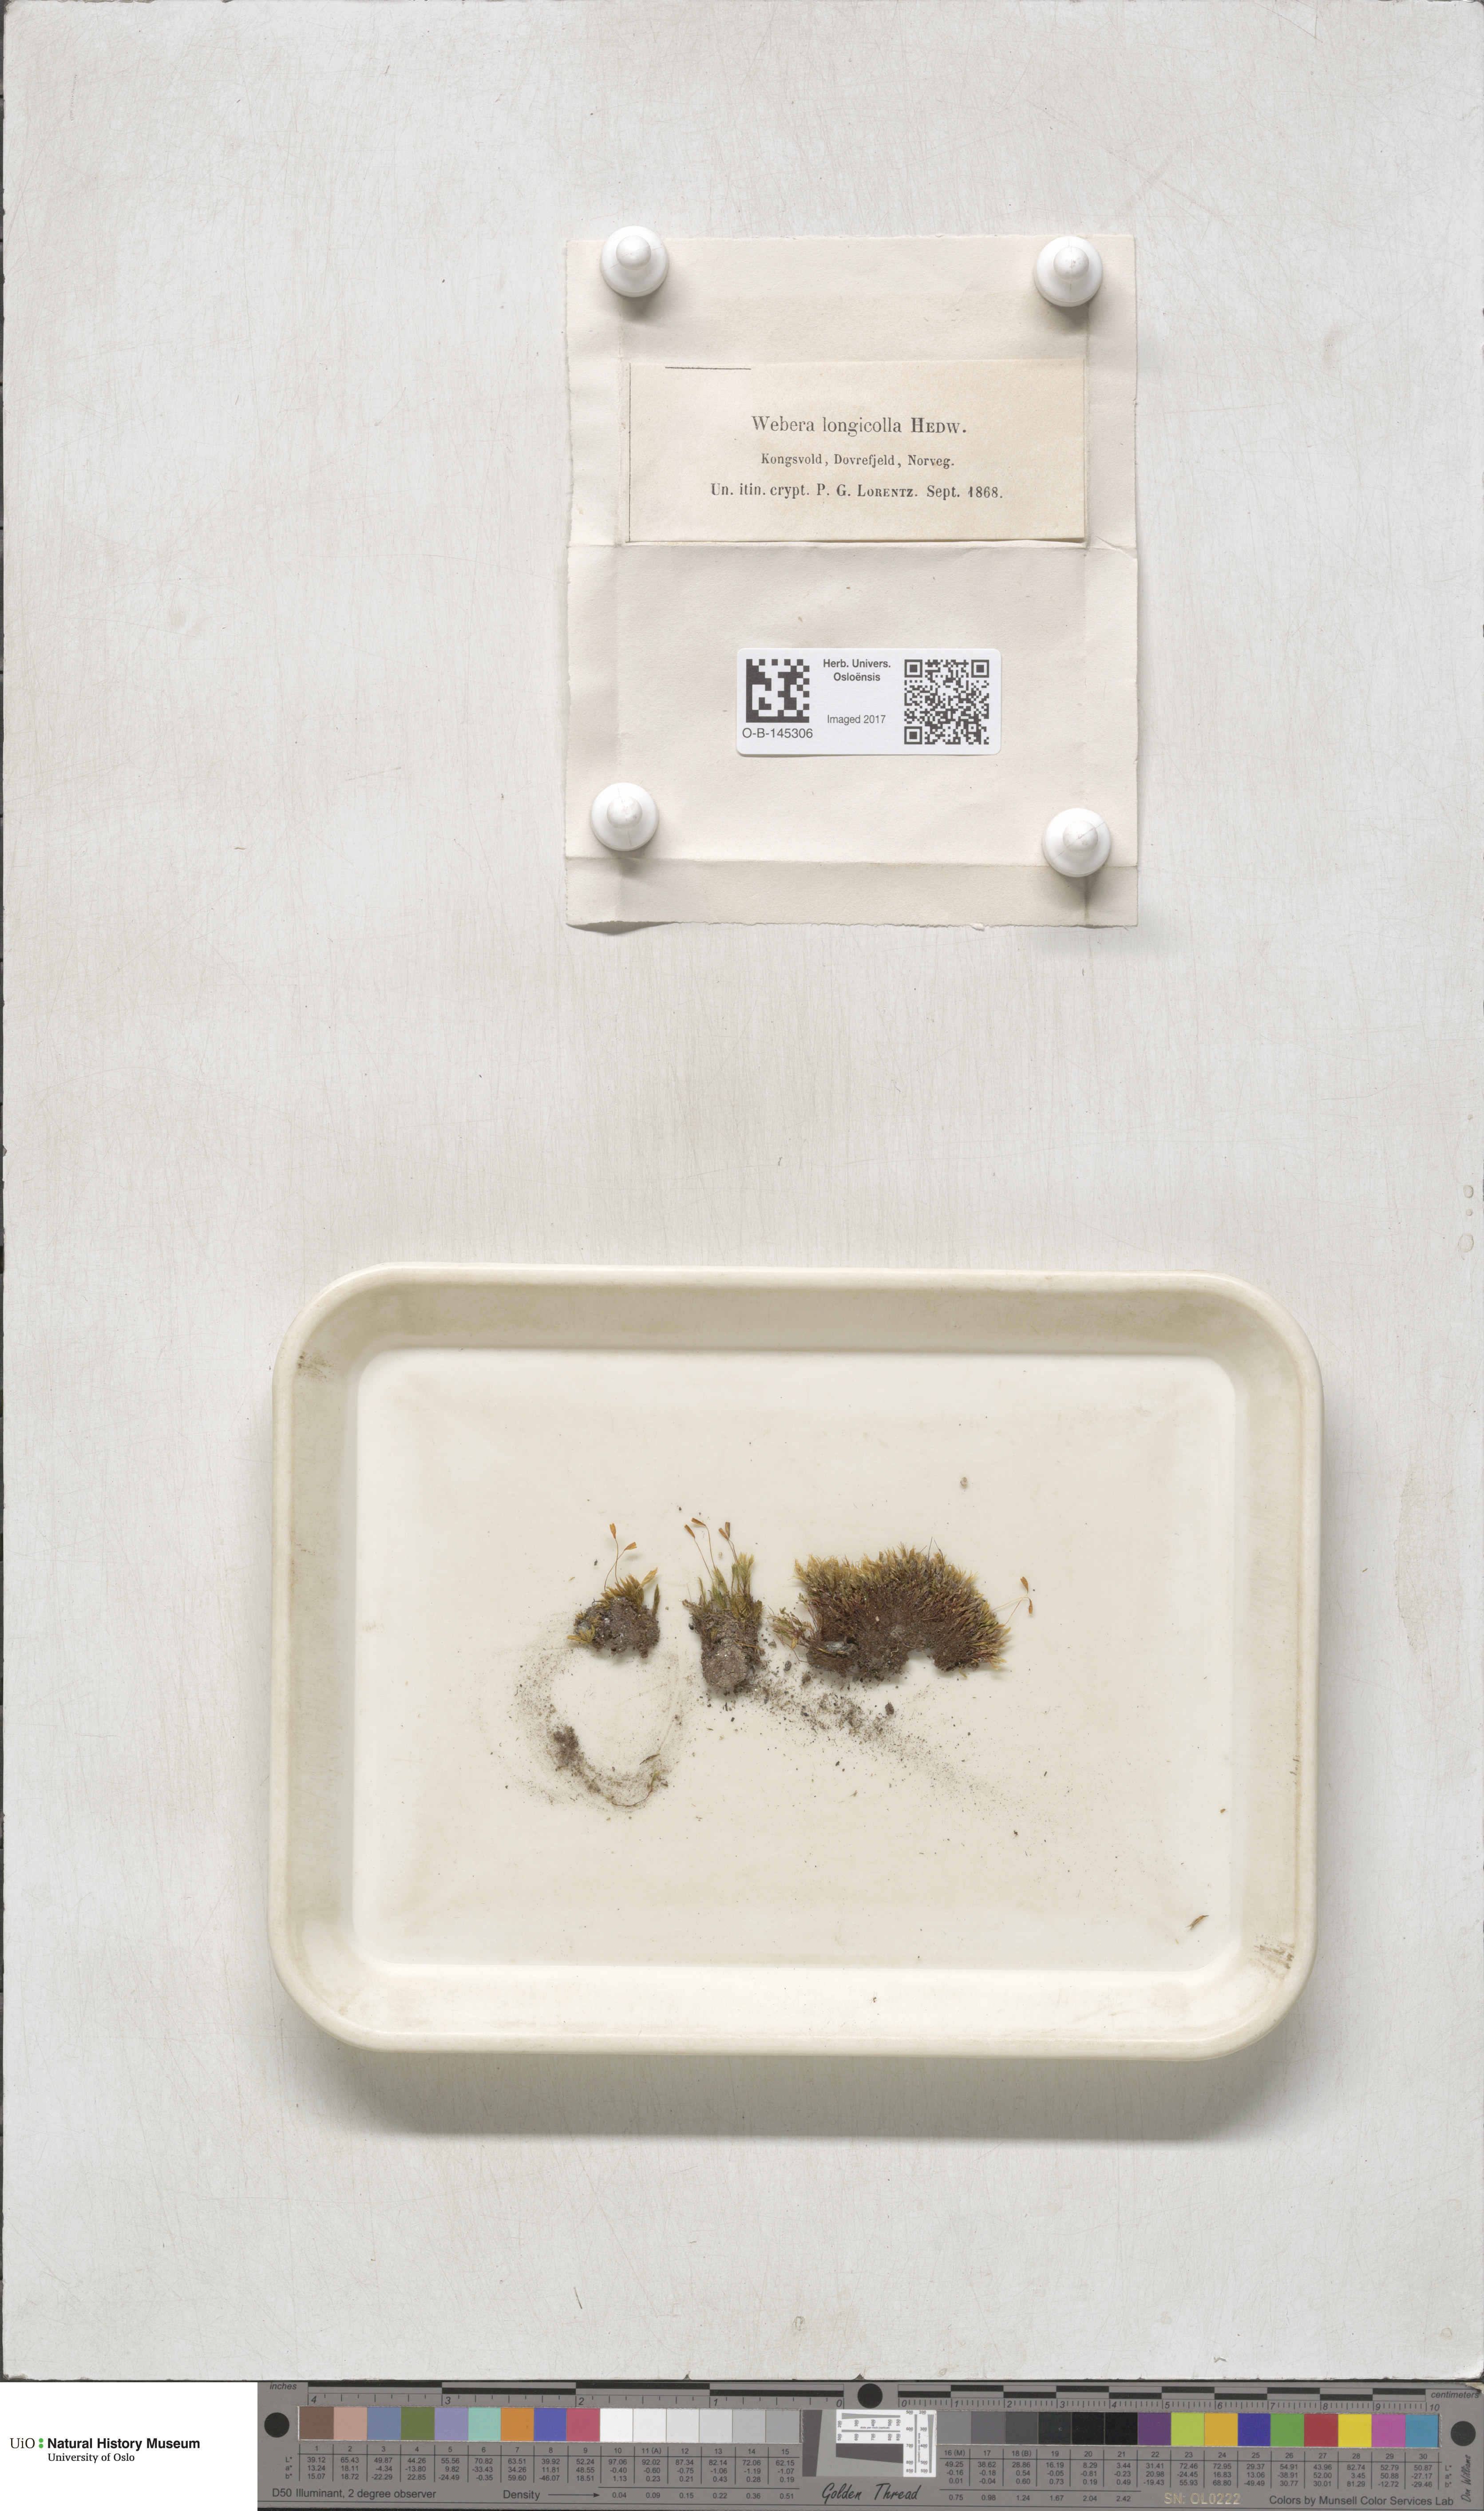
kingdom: Plantae
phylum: Bryophyta
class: Bryopsida
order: Bryales
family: Mniaceae
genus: Pohlia
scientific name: Pohlia longicolla
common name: Long-necked nodding moss
